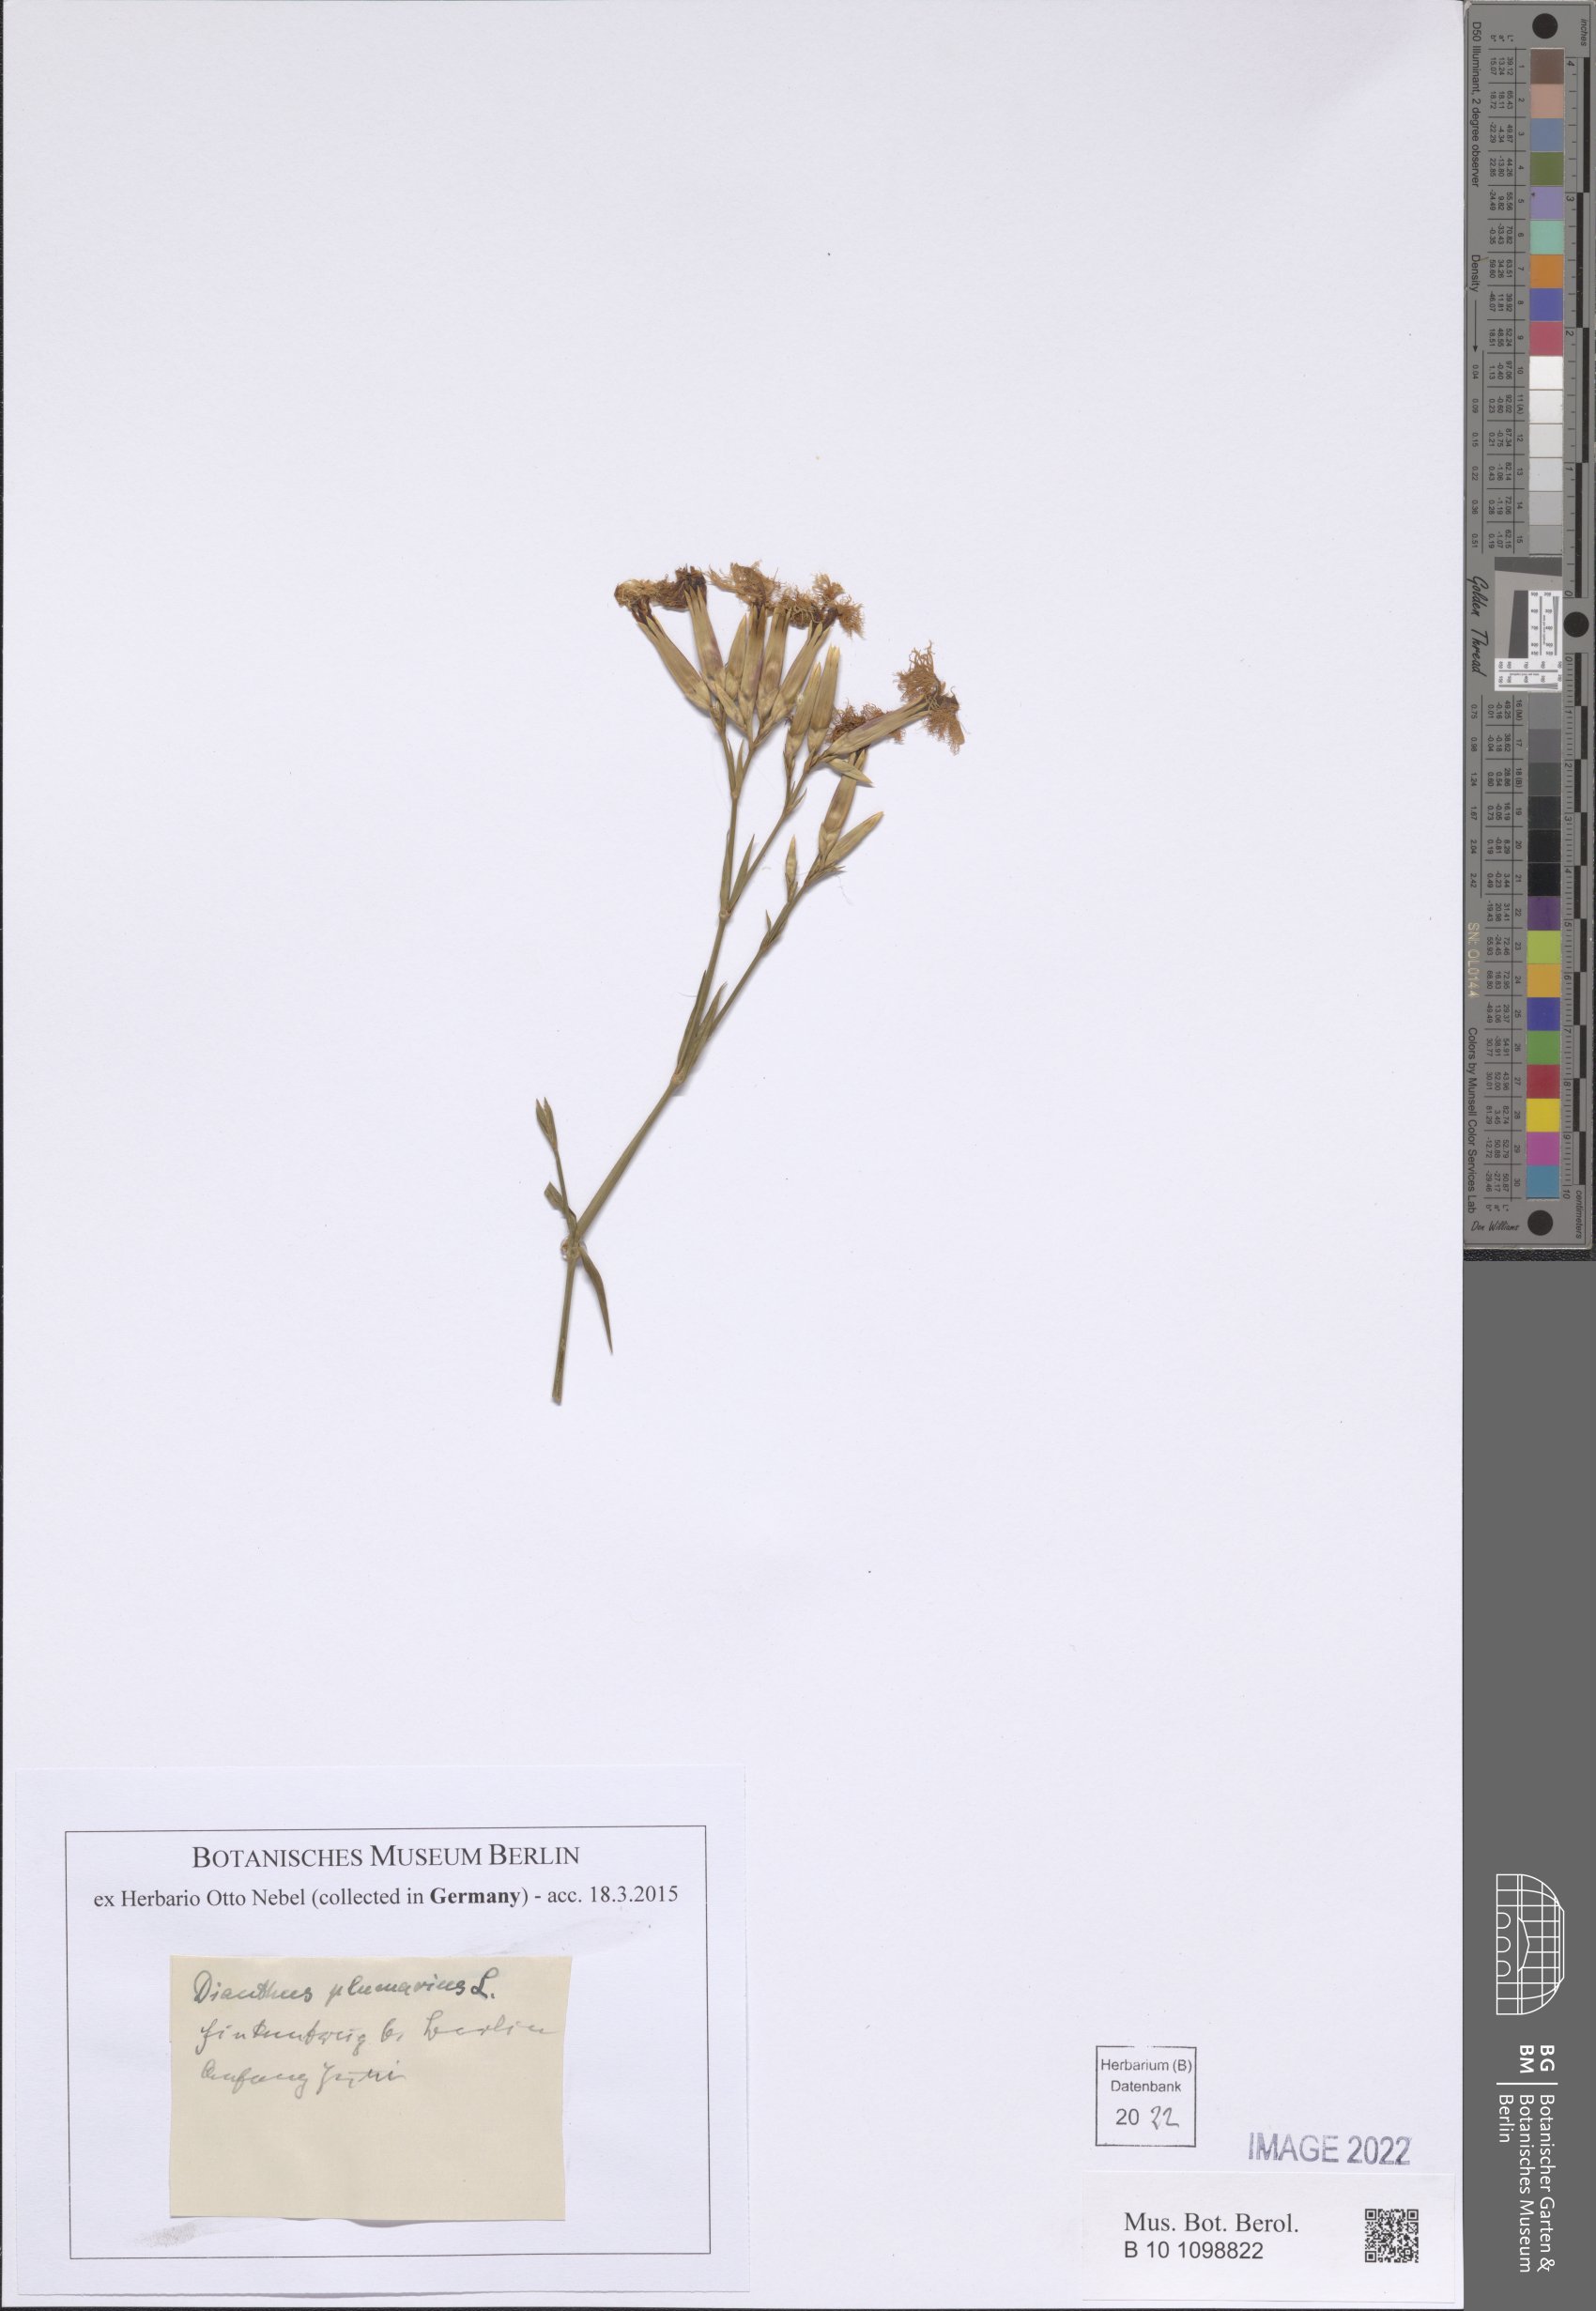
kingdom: Plantae
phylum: Tracheophyta
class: Magnoliopsida
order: Caryophyllales
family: Caryophyllaceae
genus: Dianthus
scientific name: Dianthus plumarius
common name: Pink
